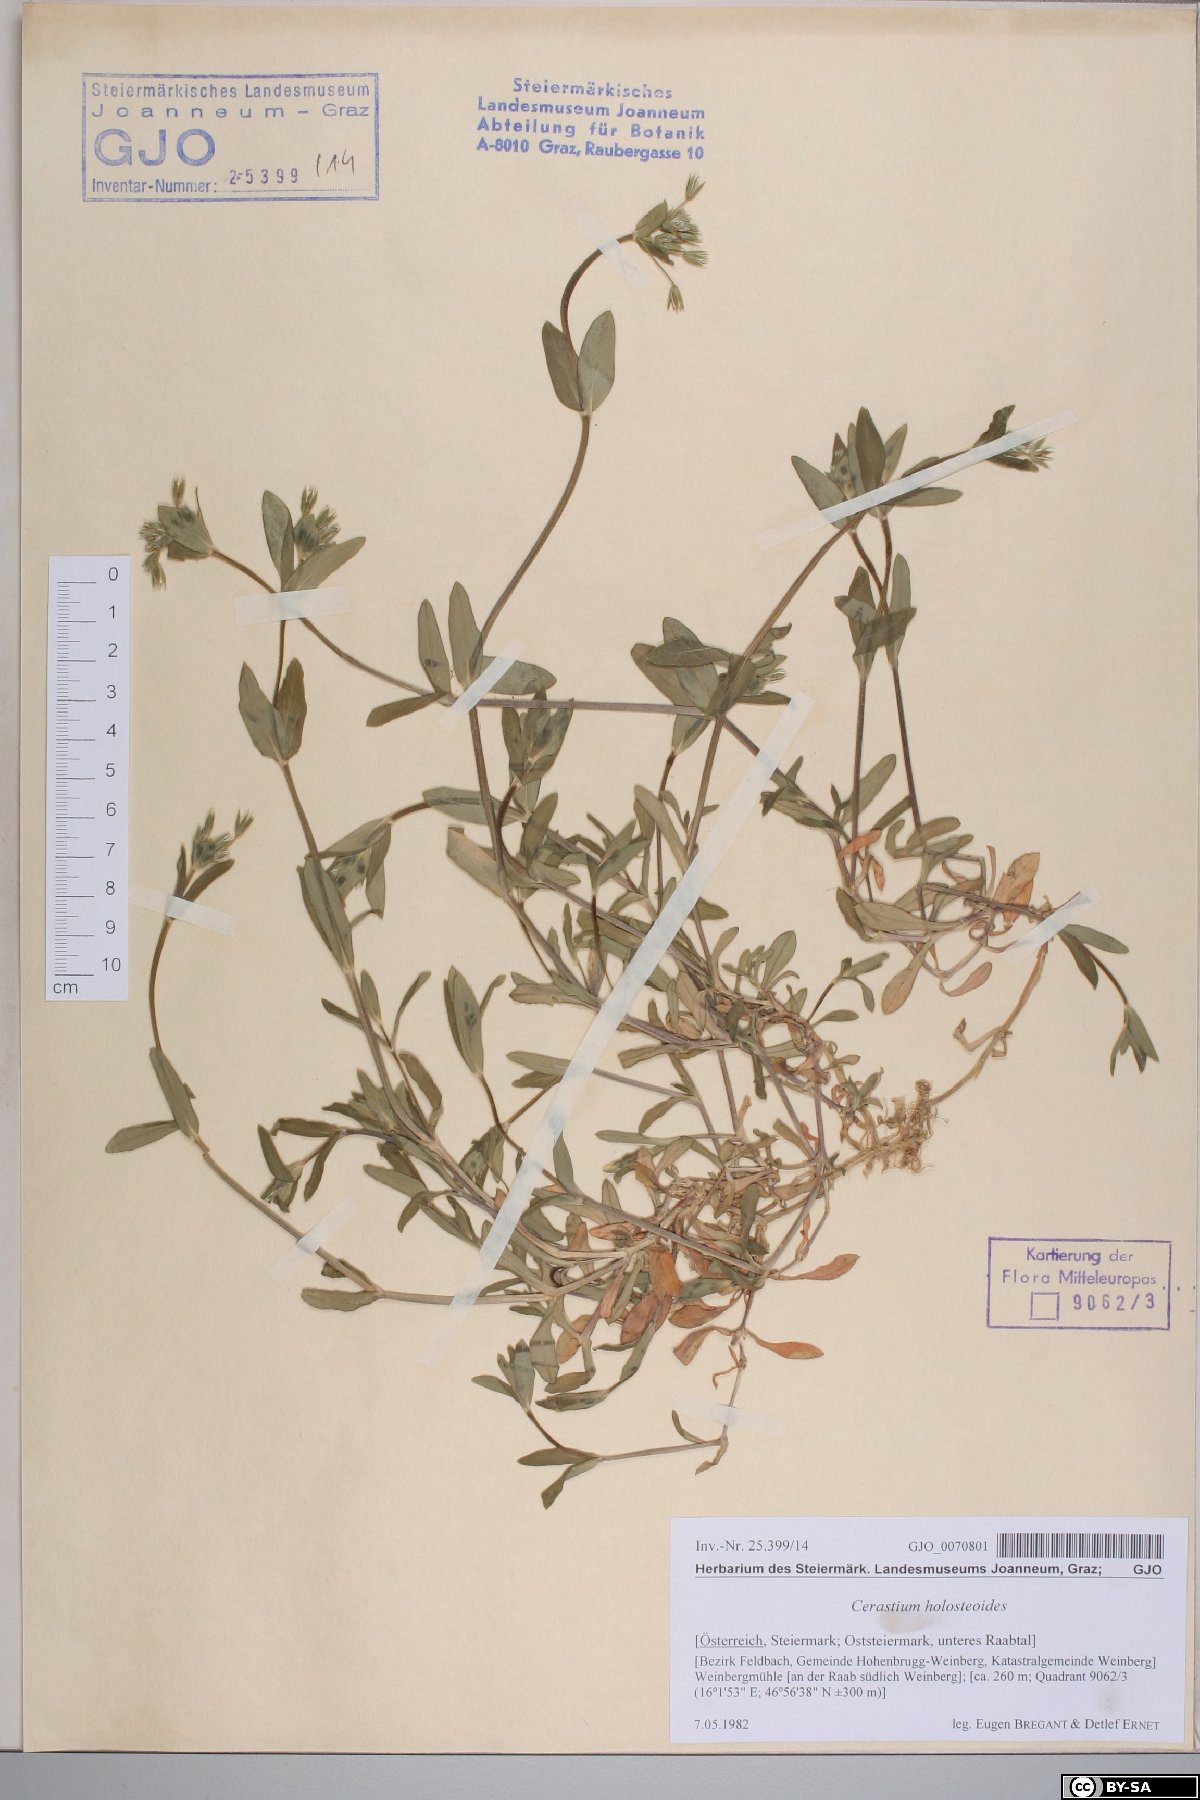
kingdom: Plantae
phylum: Tracheophyta
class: Magnoliopsida
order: Caryophyllales
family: Caryophyllaceae
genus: Cerastium
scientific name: Cerastium holosteoides
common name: Big chickweed
